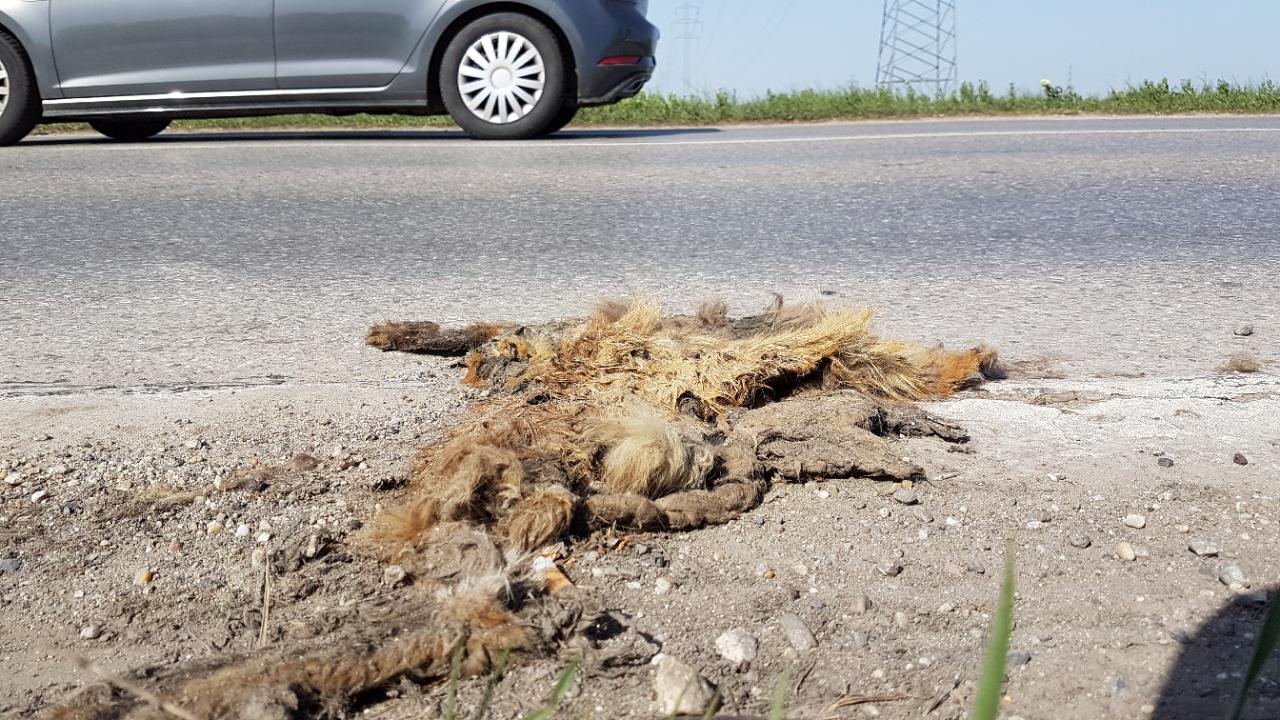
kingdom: Animalia
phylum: Chordata
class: Mammalia
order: Carnivora
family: Canidae
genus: Vulpes
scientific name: Vulpes vulpes
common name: Red fox
